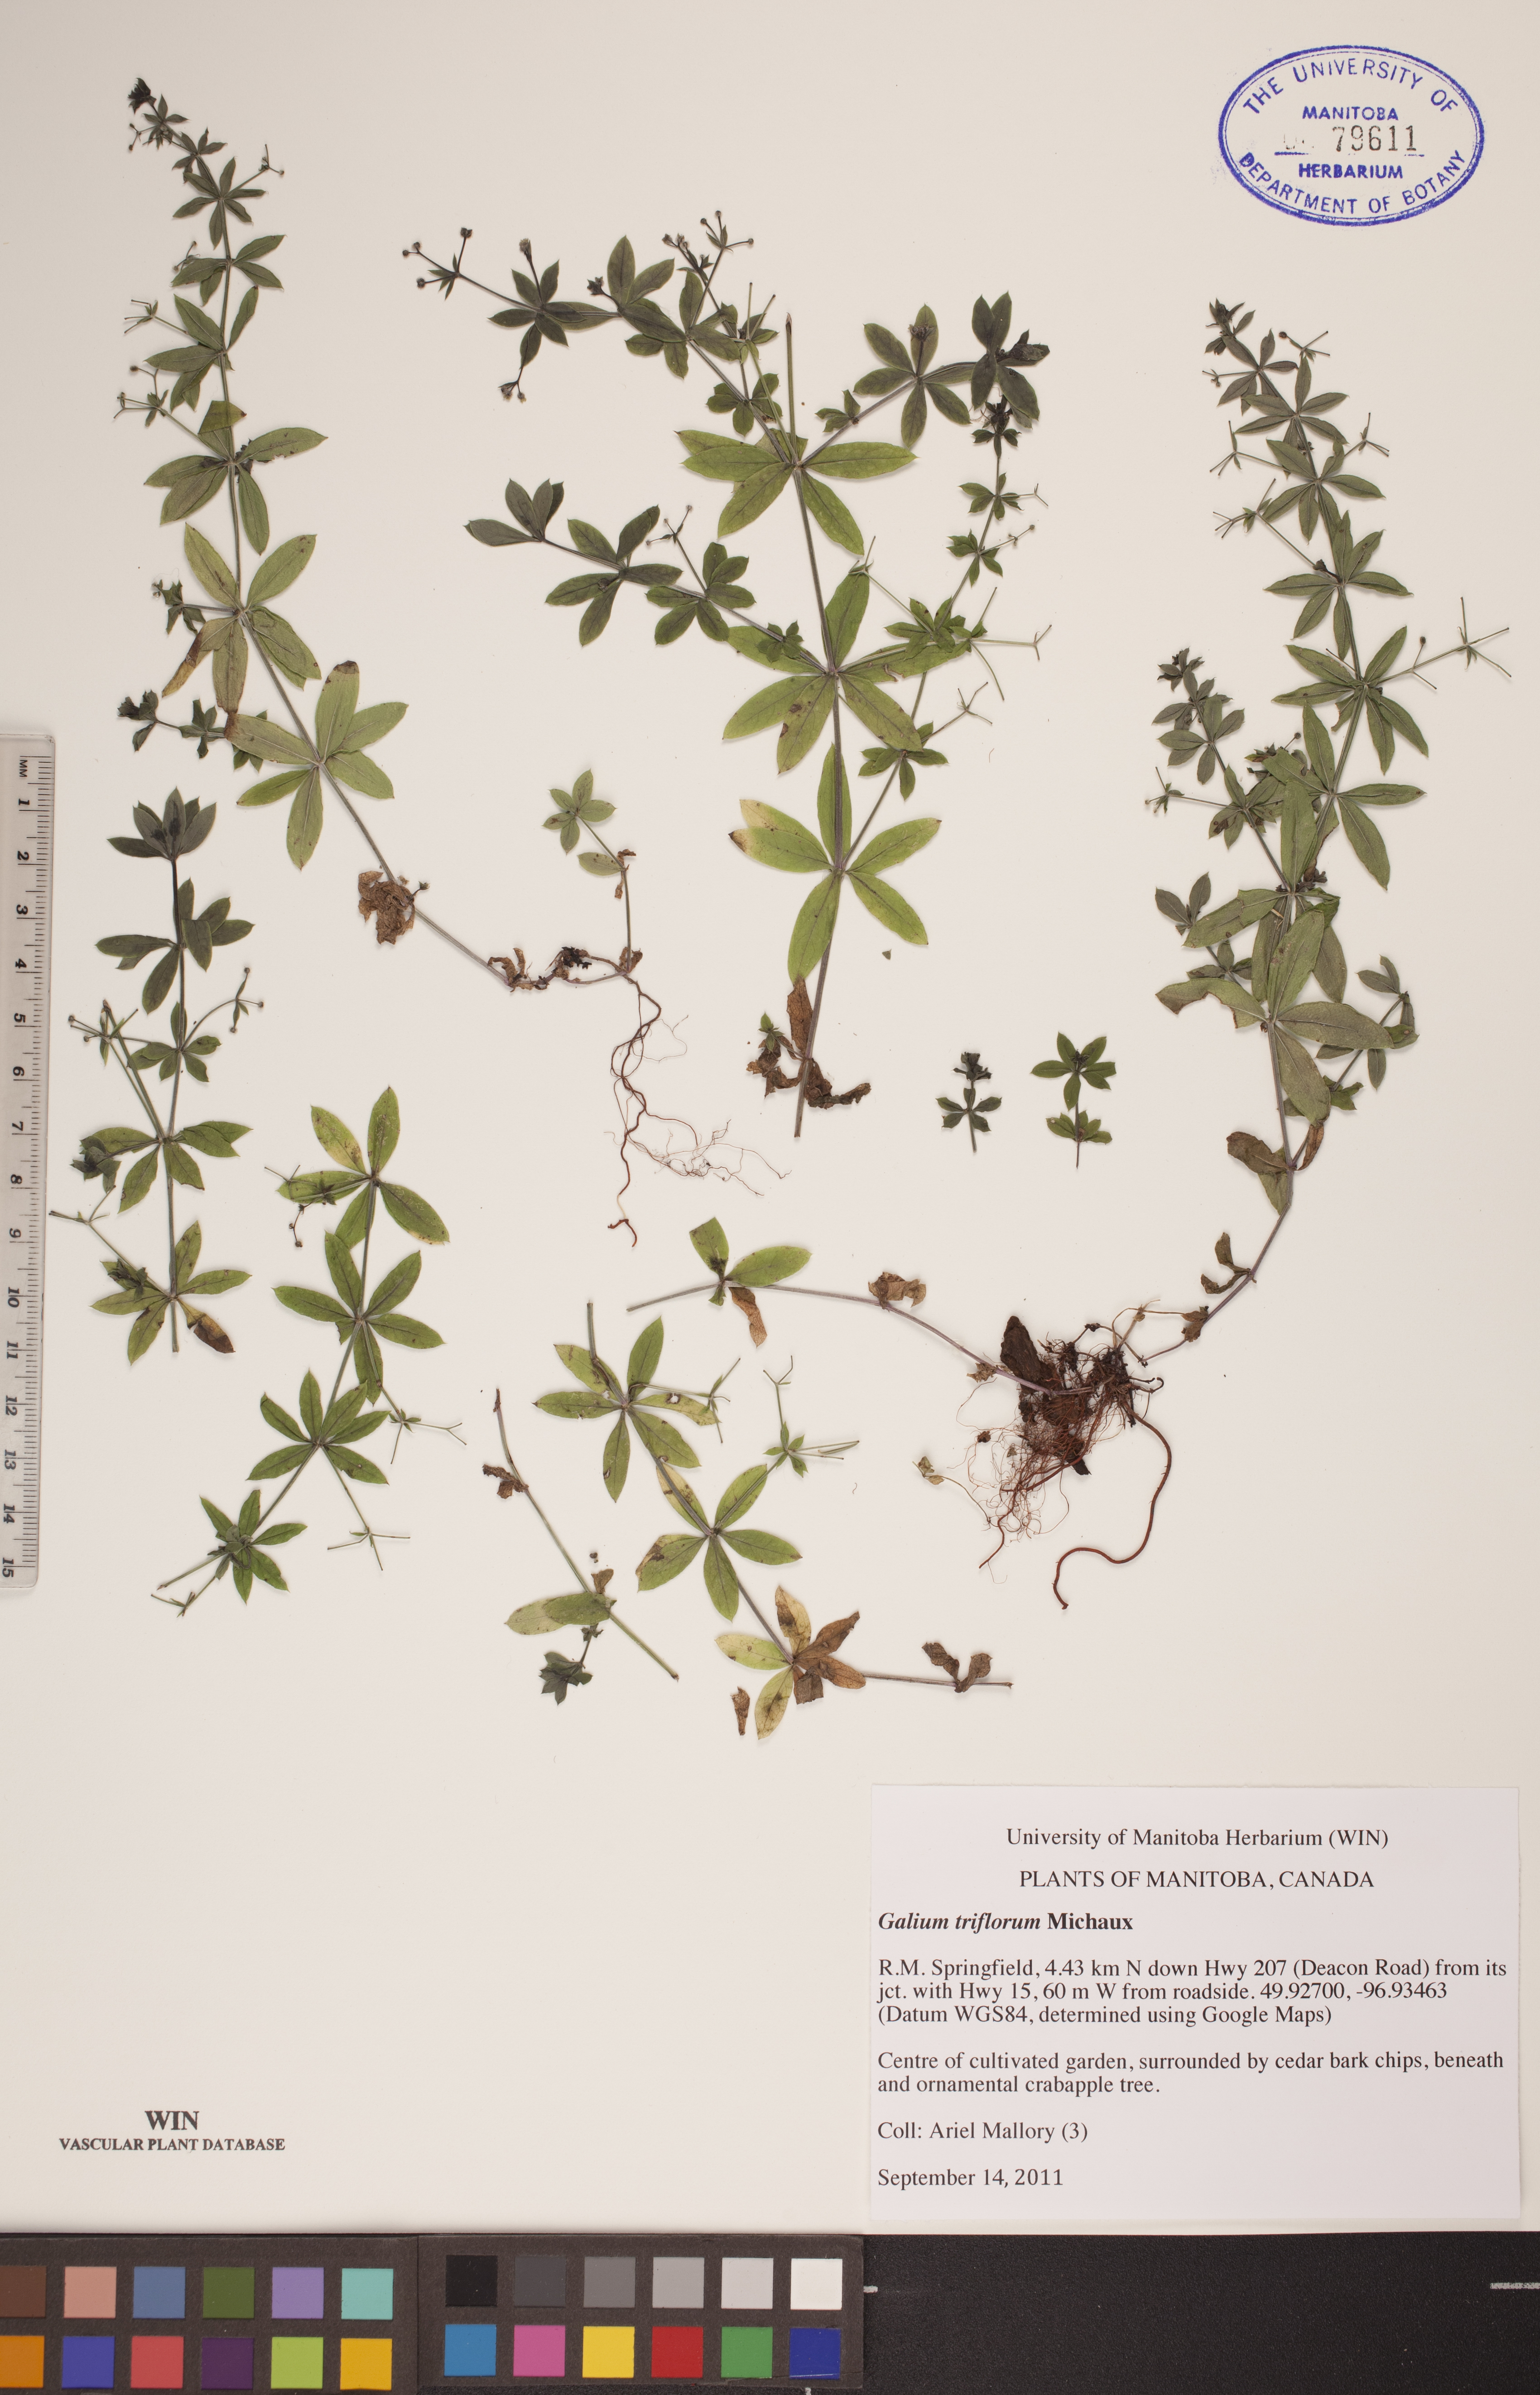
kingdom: Plantae
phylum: Tracheophyta
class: Magnoliopsida
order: Gentianales
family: Rubiaceae
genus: Galium
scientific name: Galium triflorum
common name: Fragrant bedstraw
